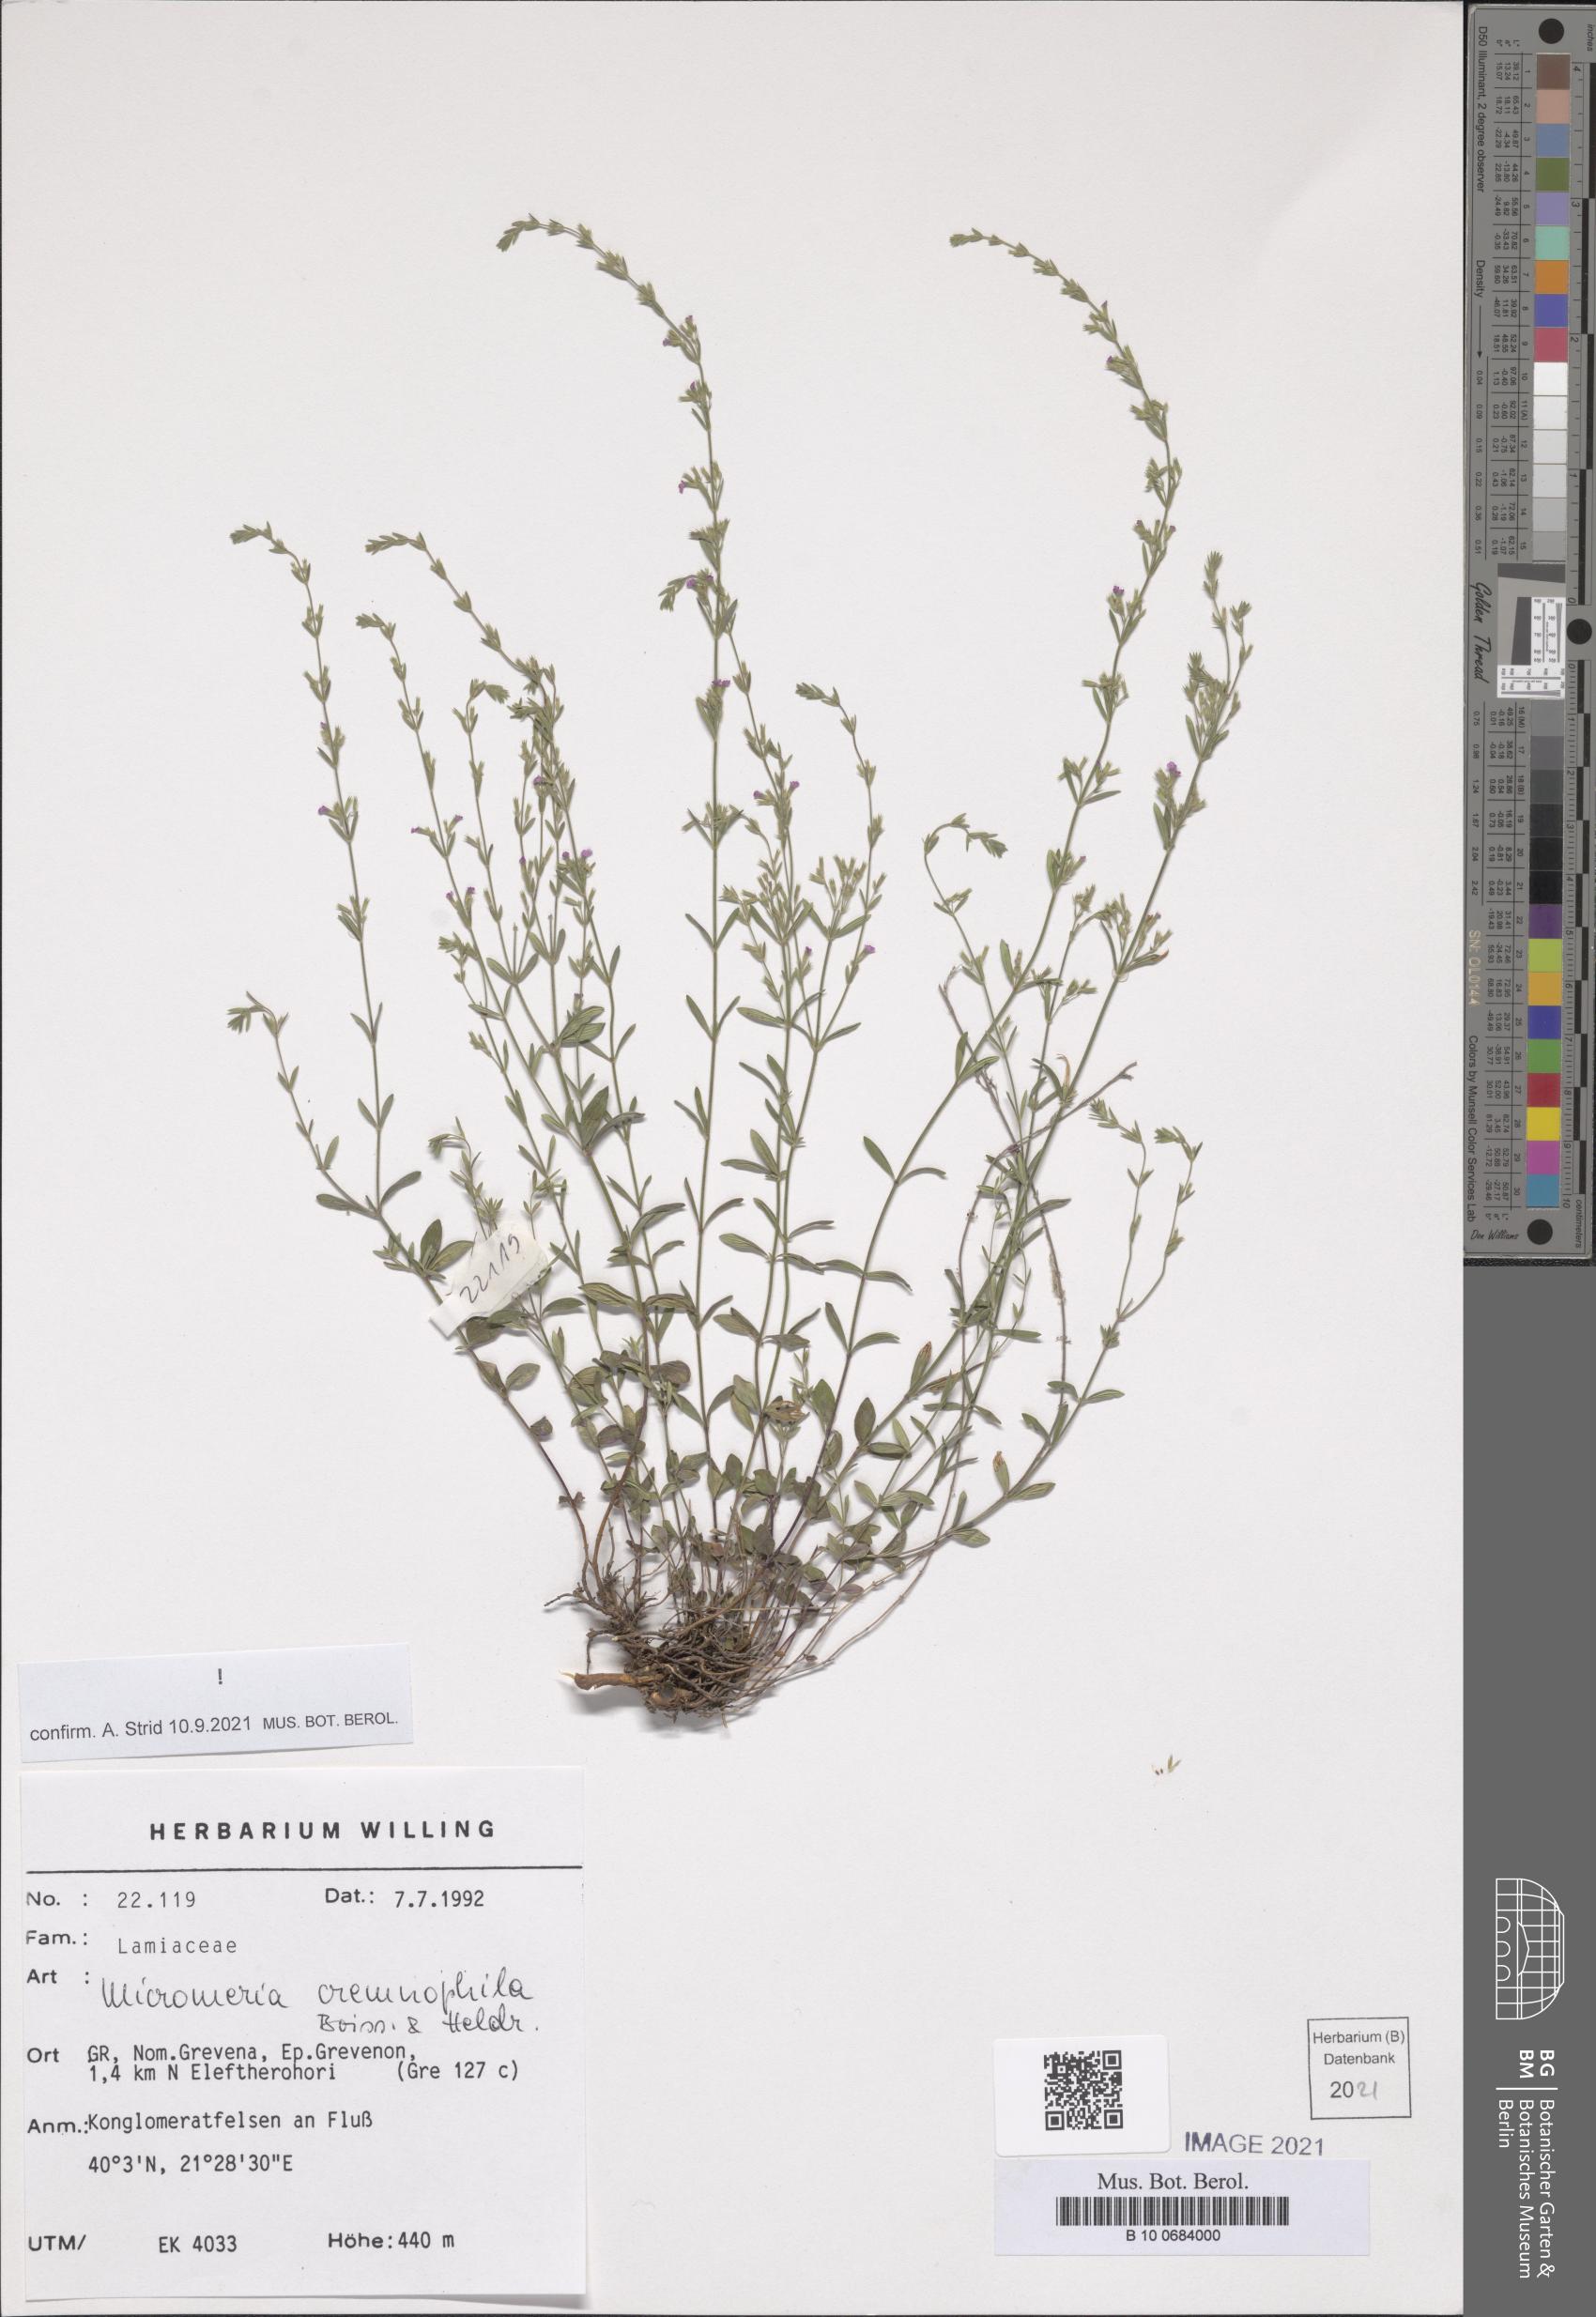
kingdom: Plantae
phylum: Tracheophyta
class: Magnoliopsida
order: Lamiales
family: Lamiaceae
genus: Micromeria
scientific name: Micromeria cremnophila
